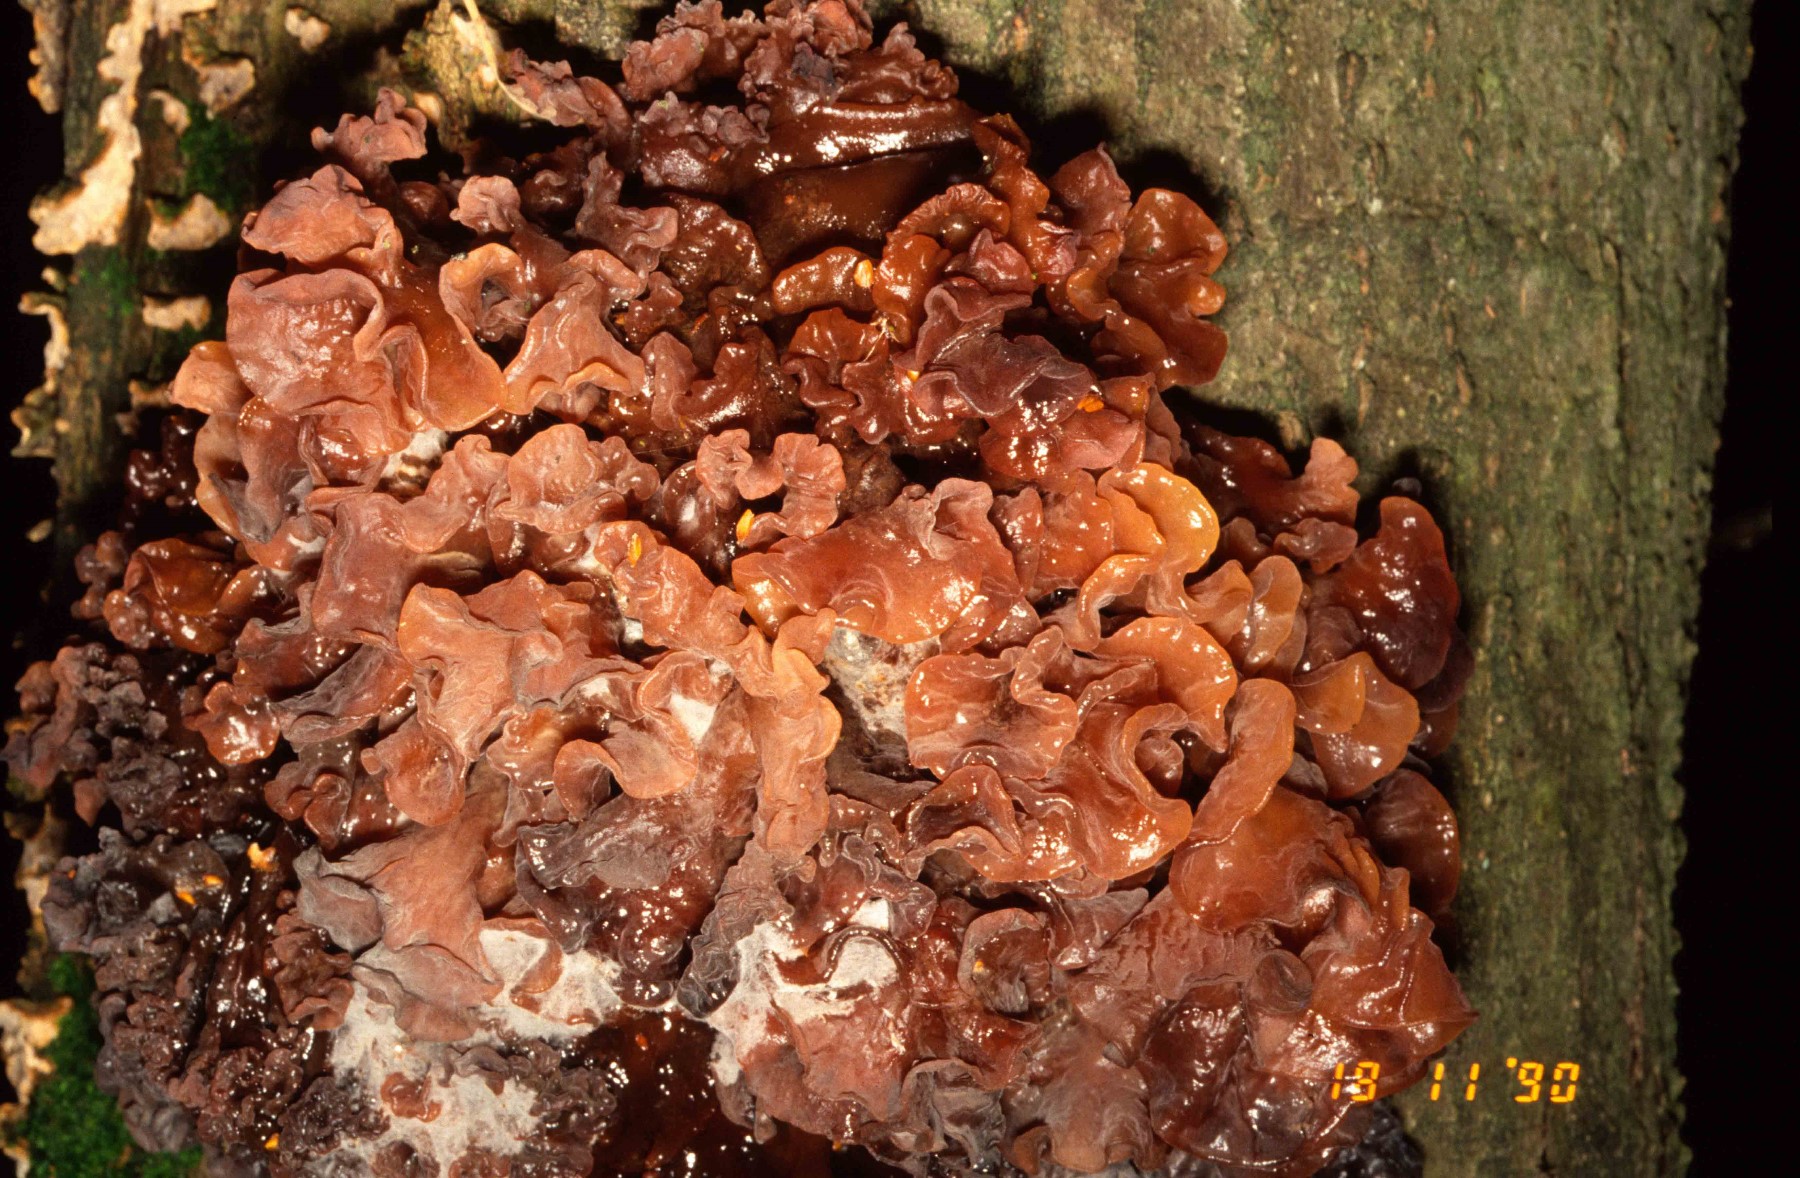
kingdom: Fungi
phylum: Basidiomycota
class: Tremellomycetes
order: Tremellales
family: Tremellaceae
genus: Phaeotremella
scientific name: Phaeotremella frondosa
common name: kæmpe-bævresvamp
